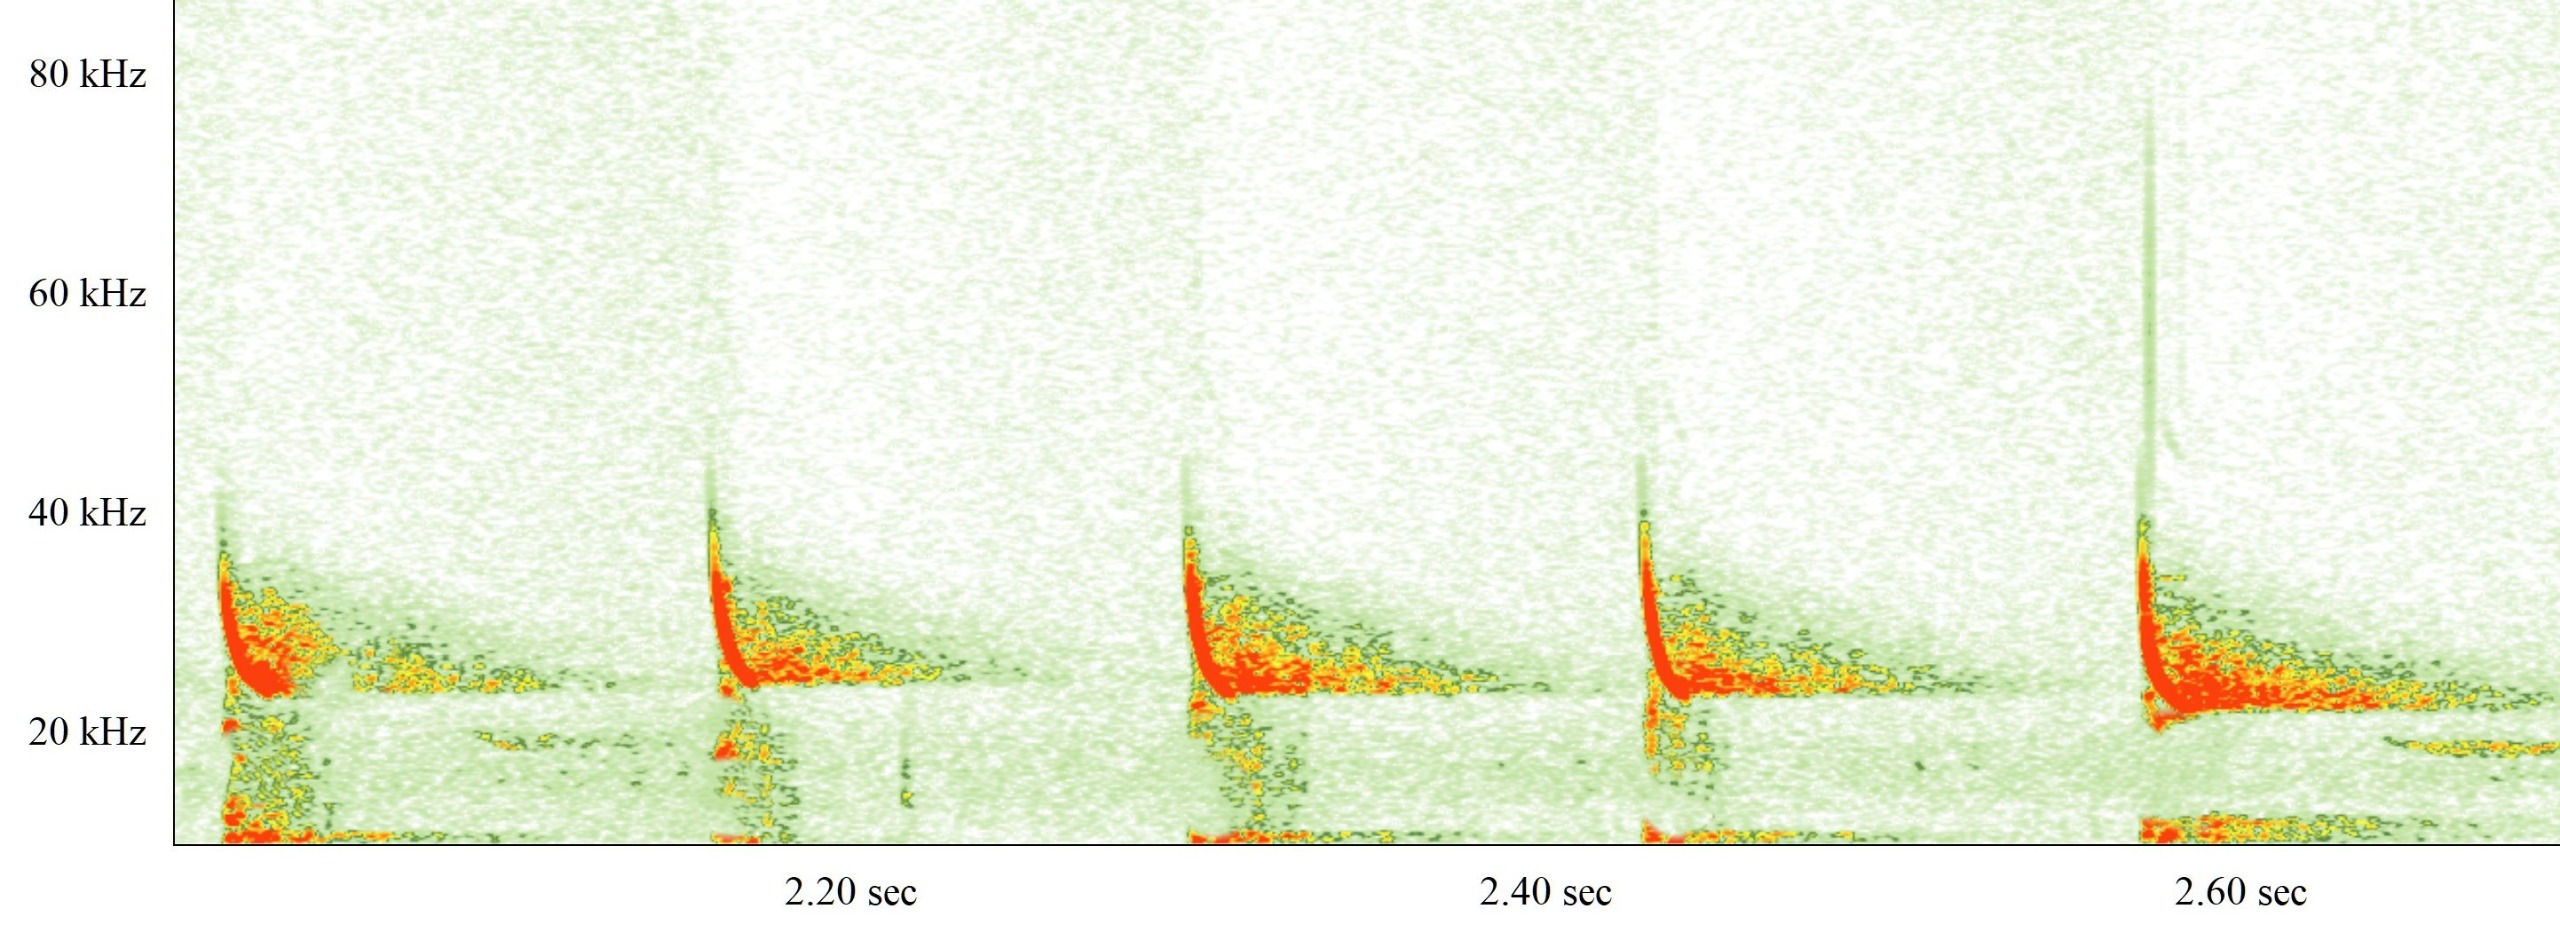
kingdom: Animalia
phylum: Chordata
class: Mammalia
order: Chiroptera
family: Vespertilionidae
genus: Eptesicus
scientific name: Eptesicus serotinus
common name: Sydflagermus
